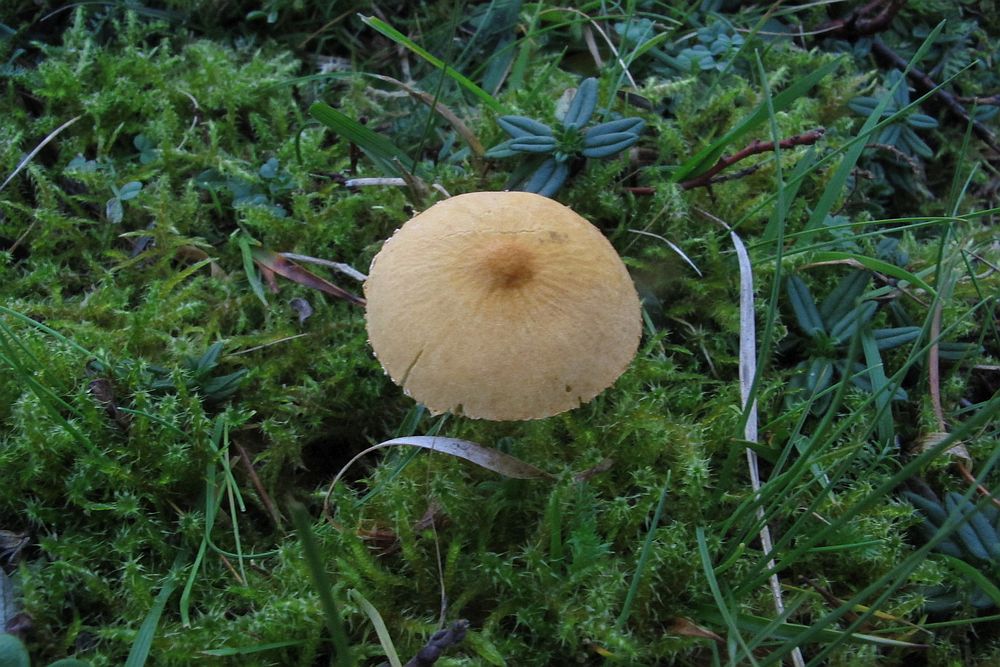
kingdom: Fungi
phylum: Basidiomycota
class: Agaricomycetes
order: Agaricales
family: Tricholomataceae
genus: Cystoderma
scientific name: Cystoderma amianthinum
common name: okkergul grynhat
